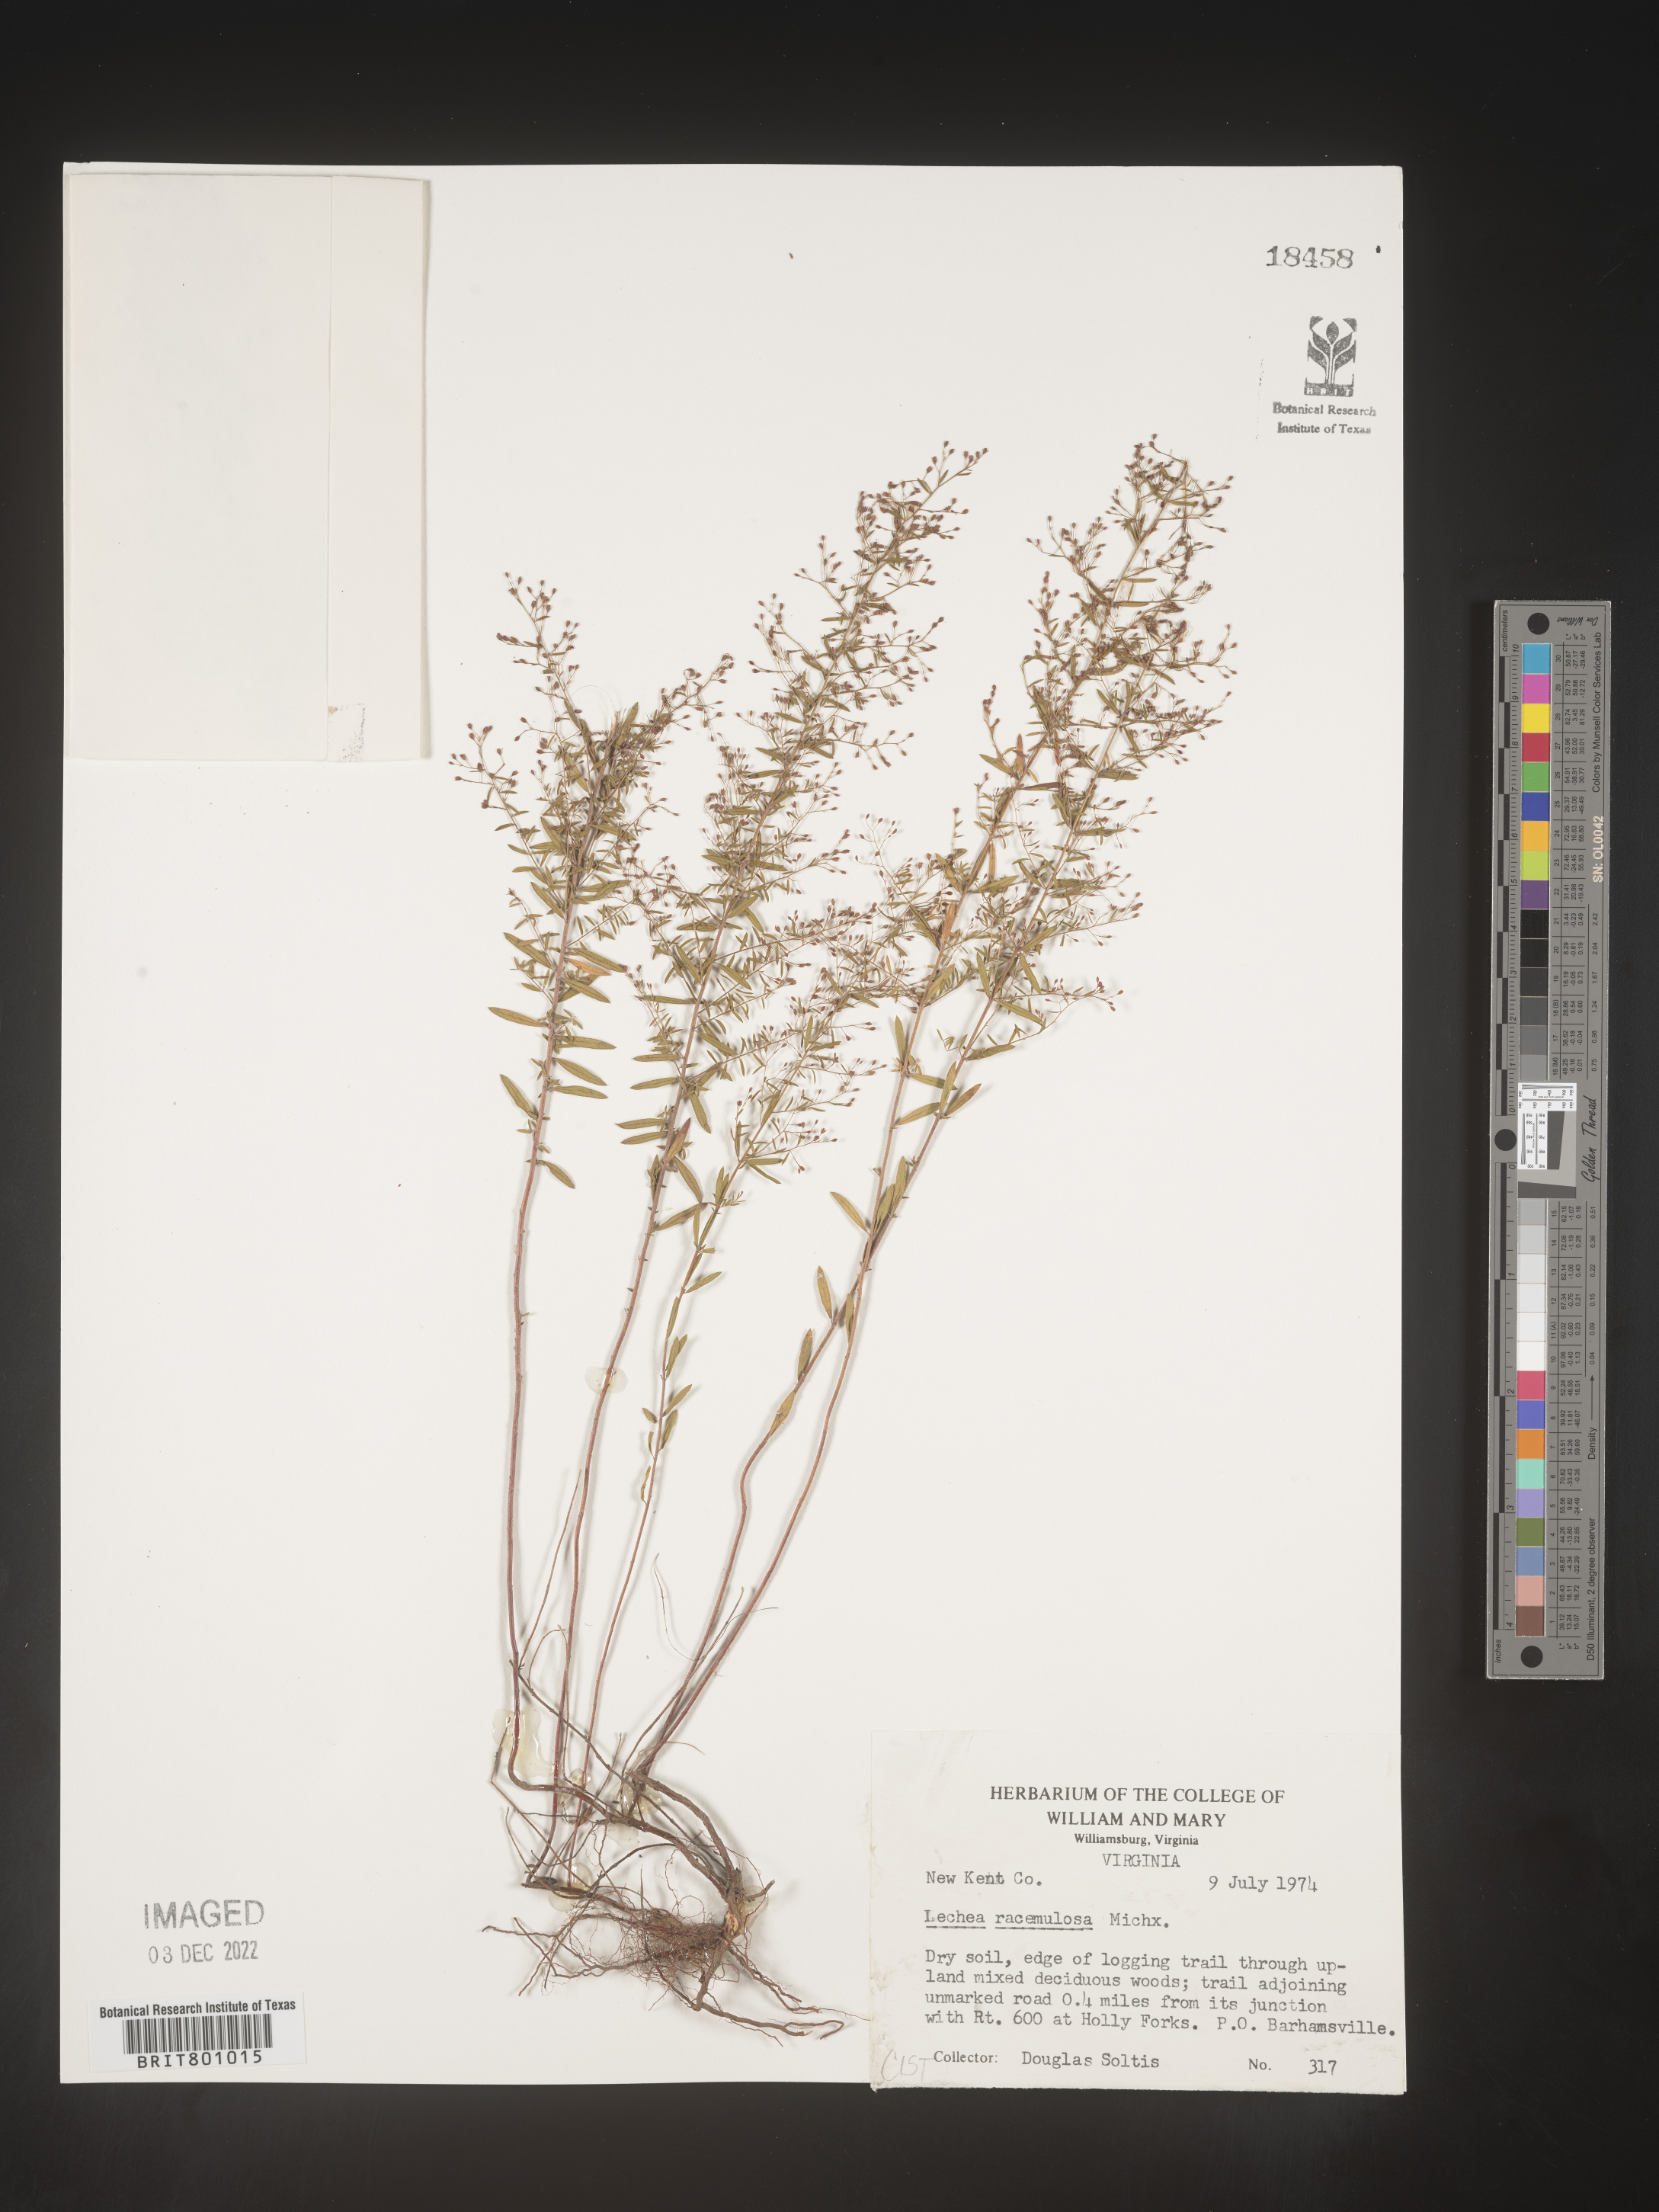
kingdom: Plantae
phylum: Tracheophyta
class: Magnoliopsida
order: Malvales
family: Cistaceae
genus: Lechea
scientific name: Lechea racemulosa
